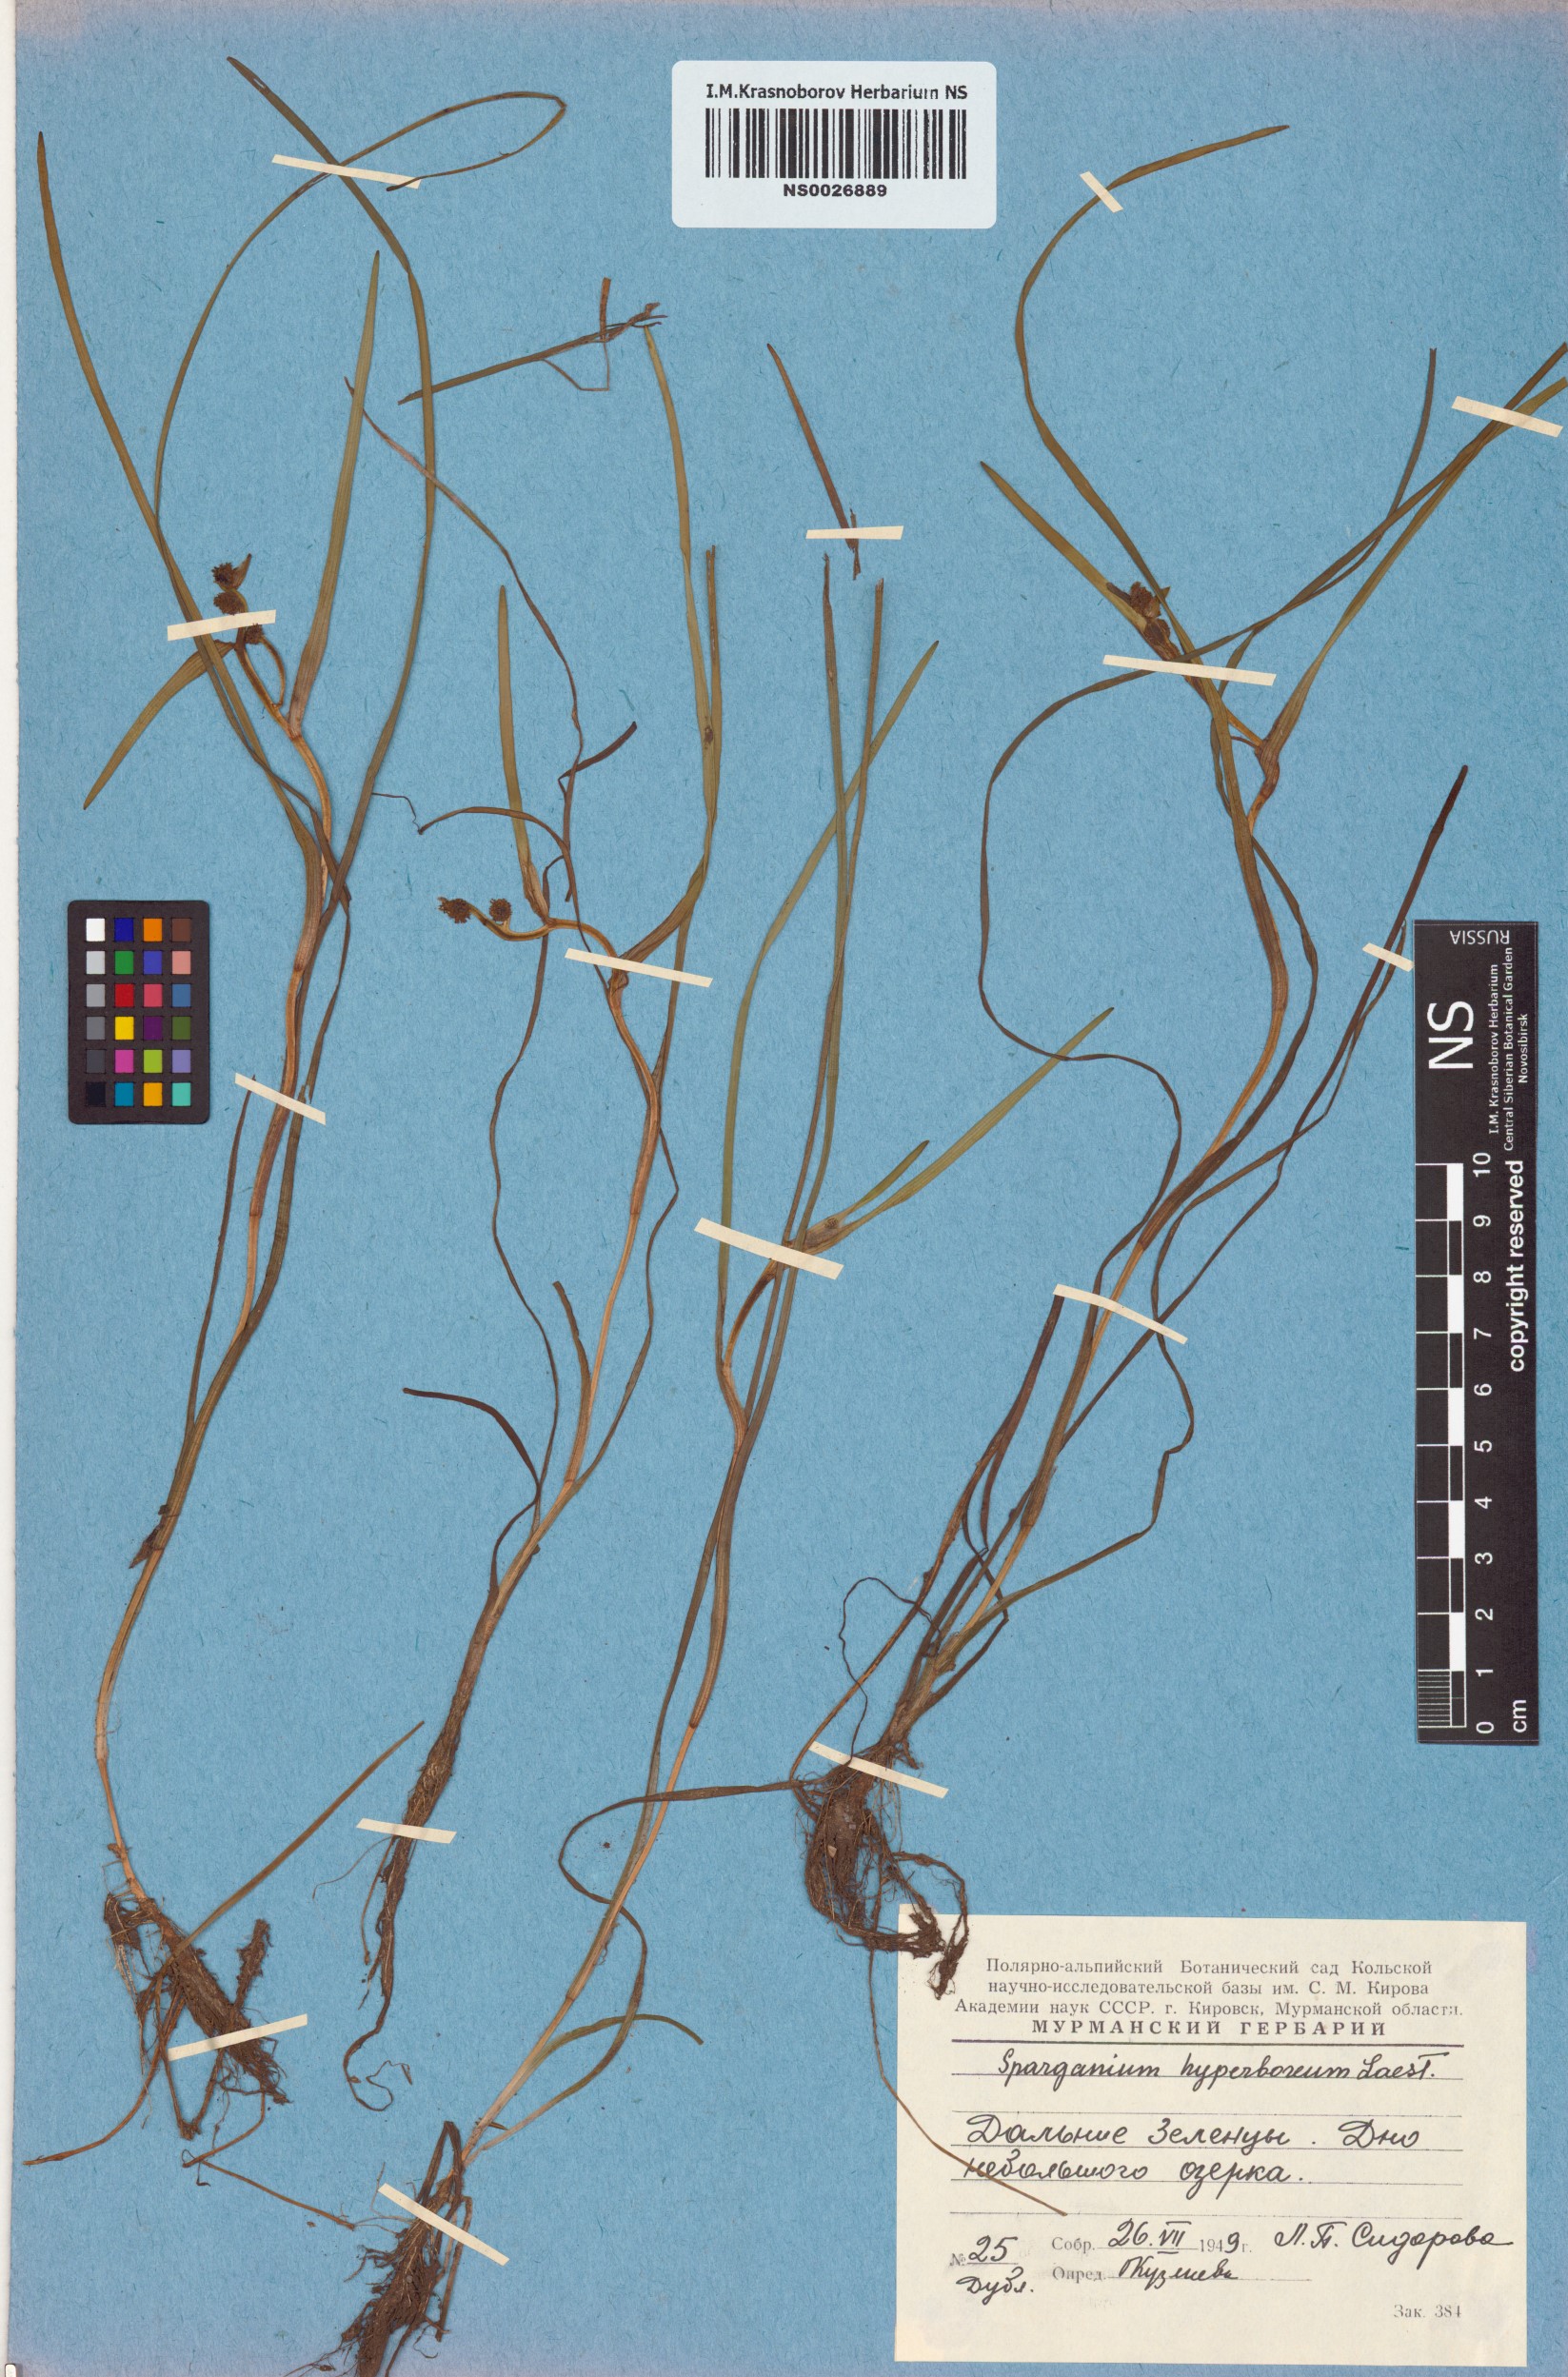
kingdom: Plantae
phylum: Tracheophyta
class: Liliopsida
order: Poales
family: Typhaceae
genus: Sparganium
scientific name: Sparganium hyperboreum
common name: Arctic burreed
